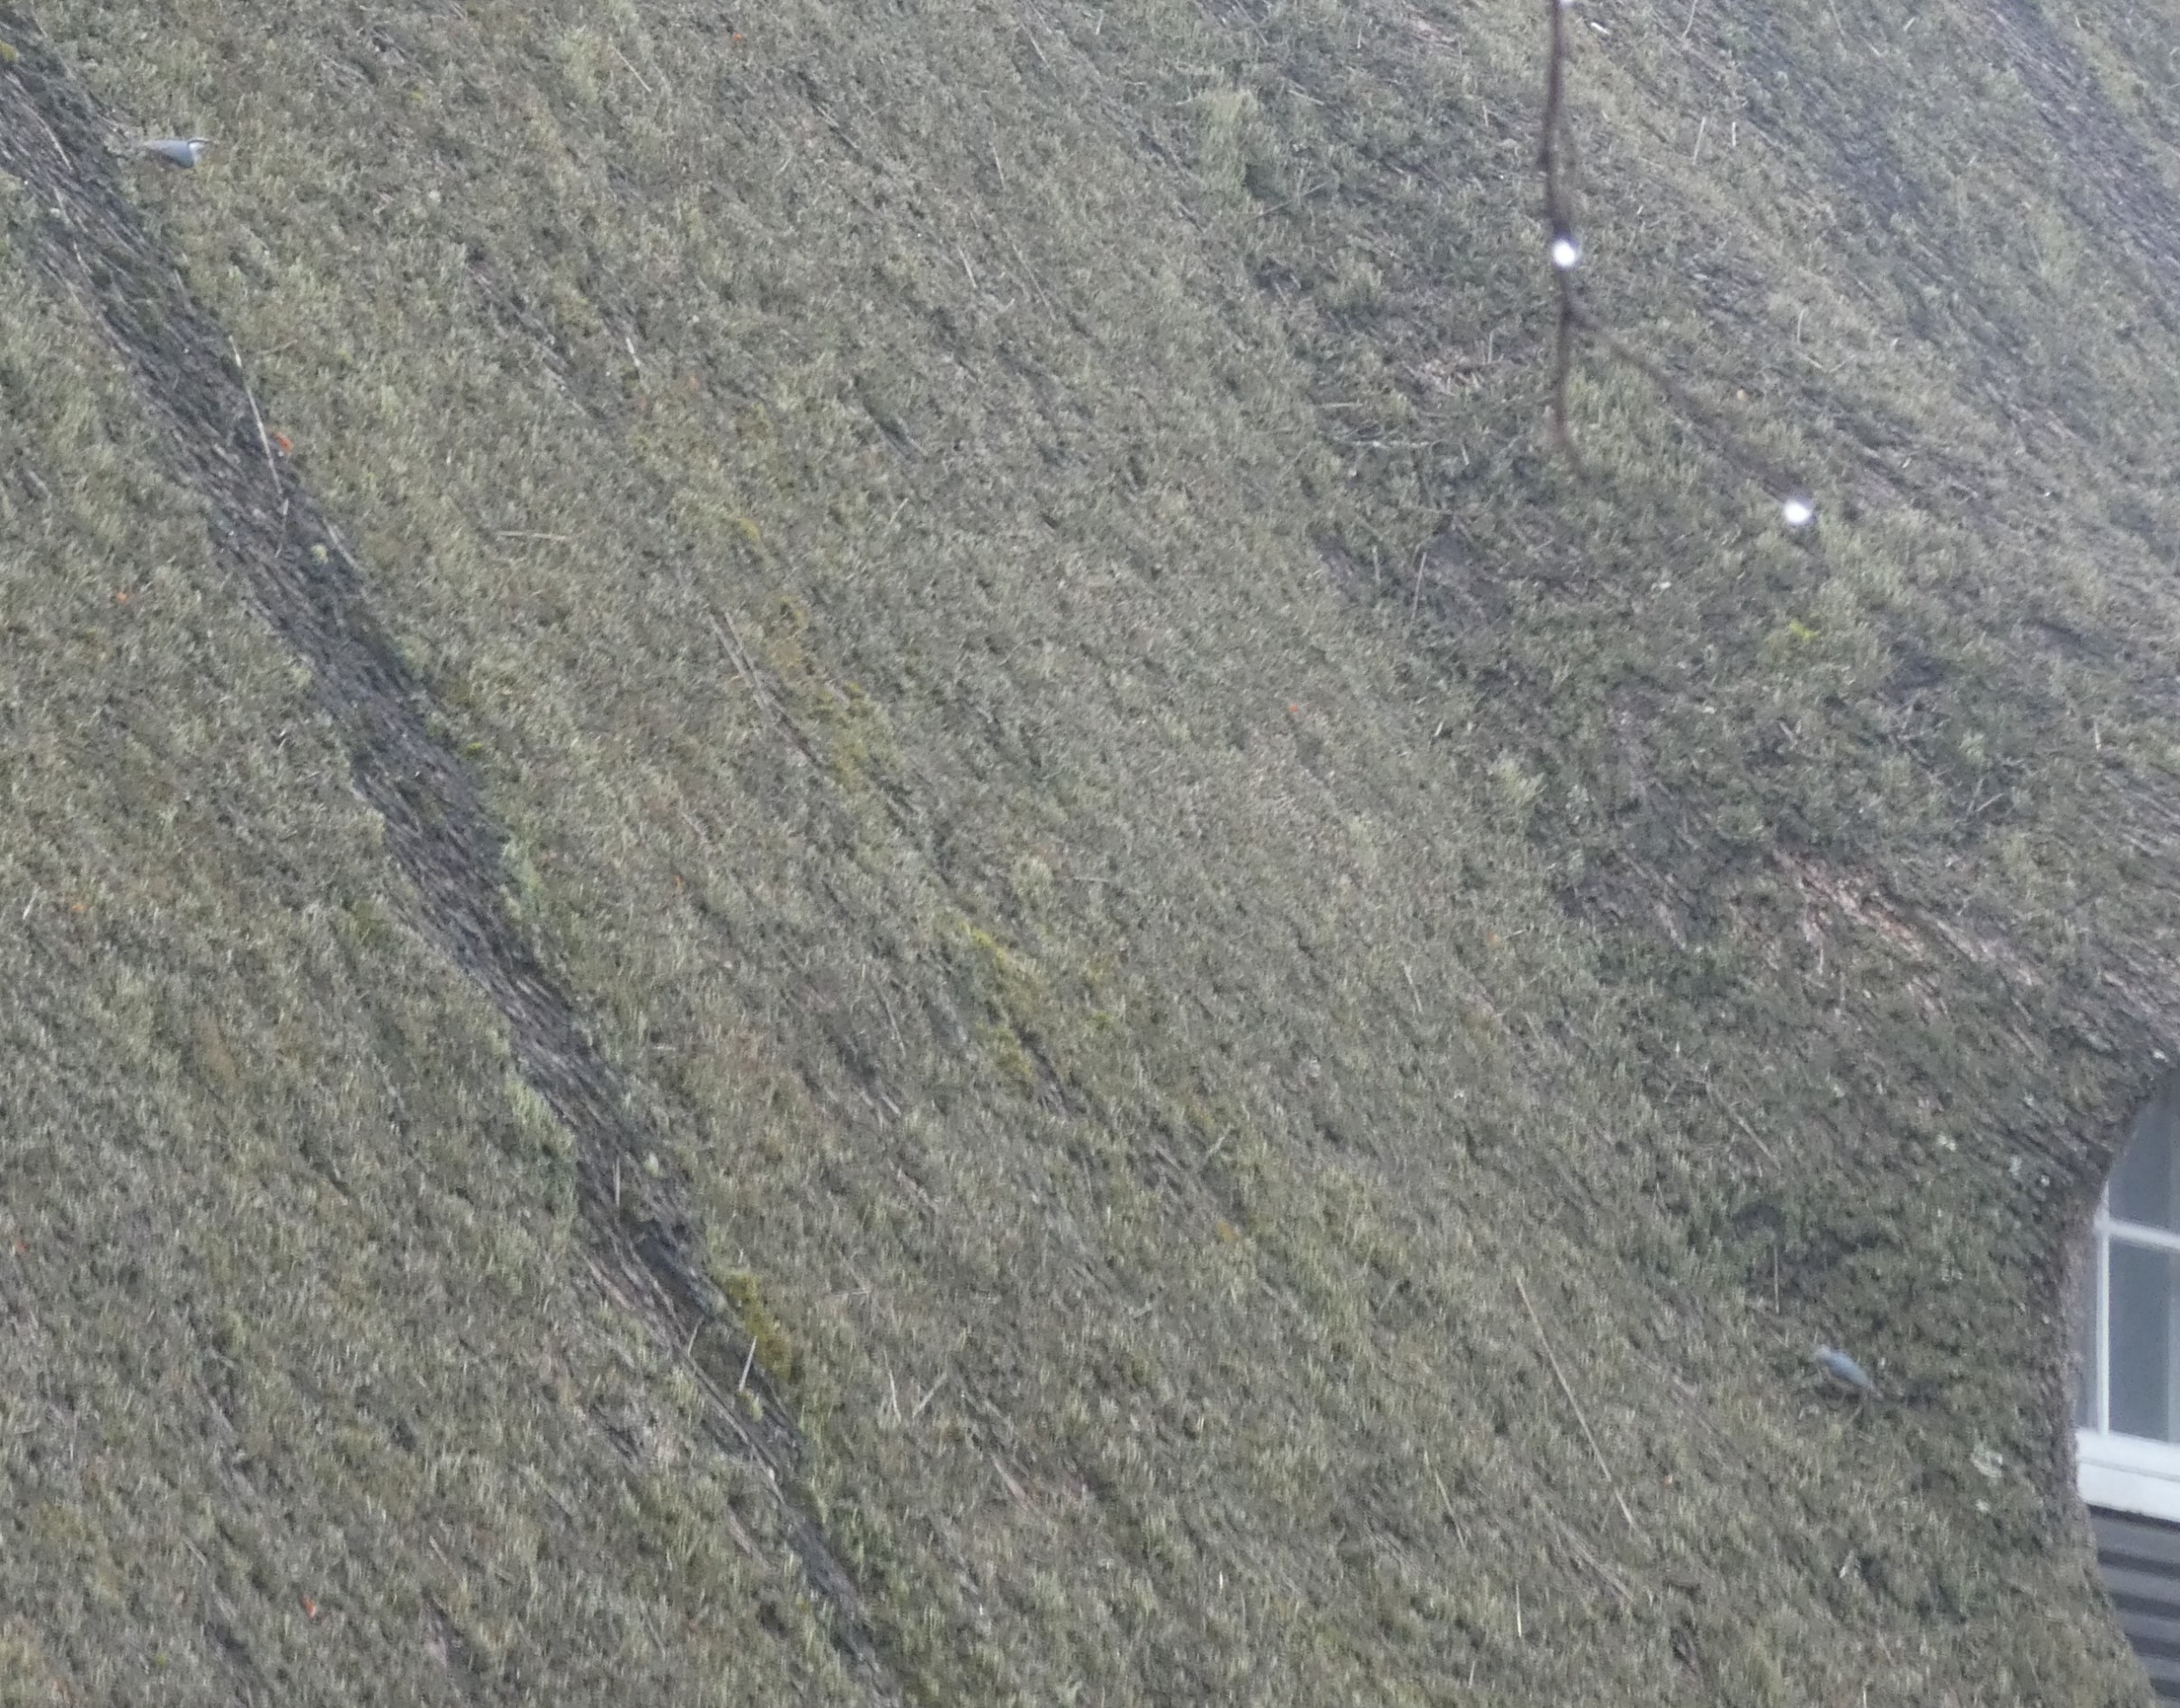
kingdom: Animalia
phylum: Chordata
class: Aves
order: Passeriformes
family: Sittidae
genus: Sitta
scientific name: Sitta europaea
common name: Spætmejse
